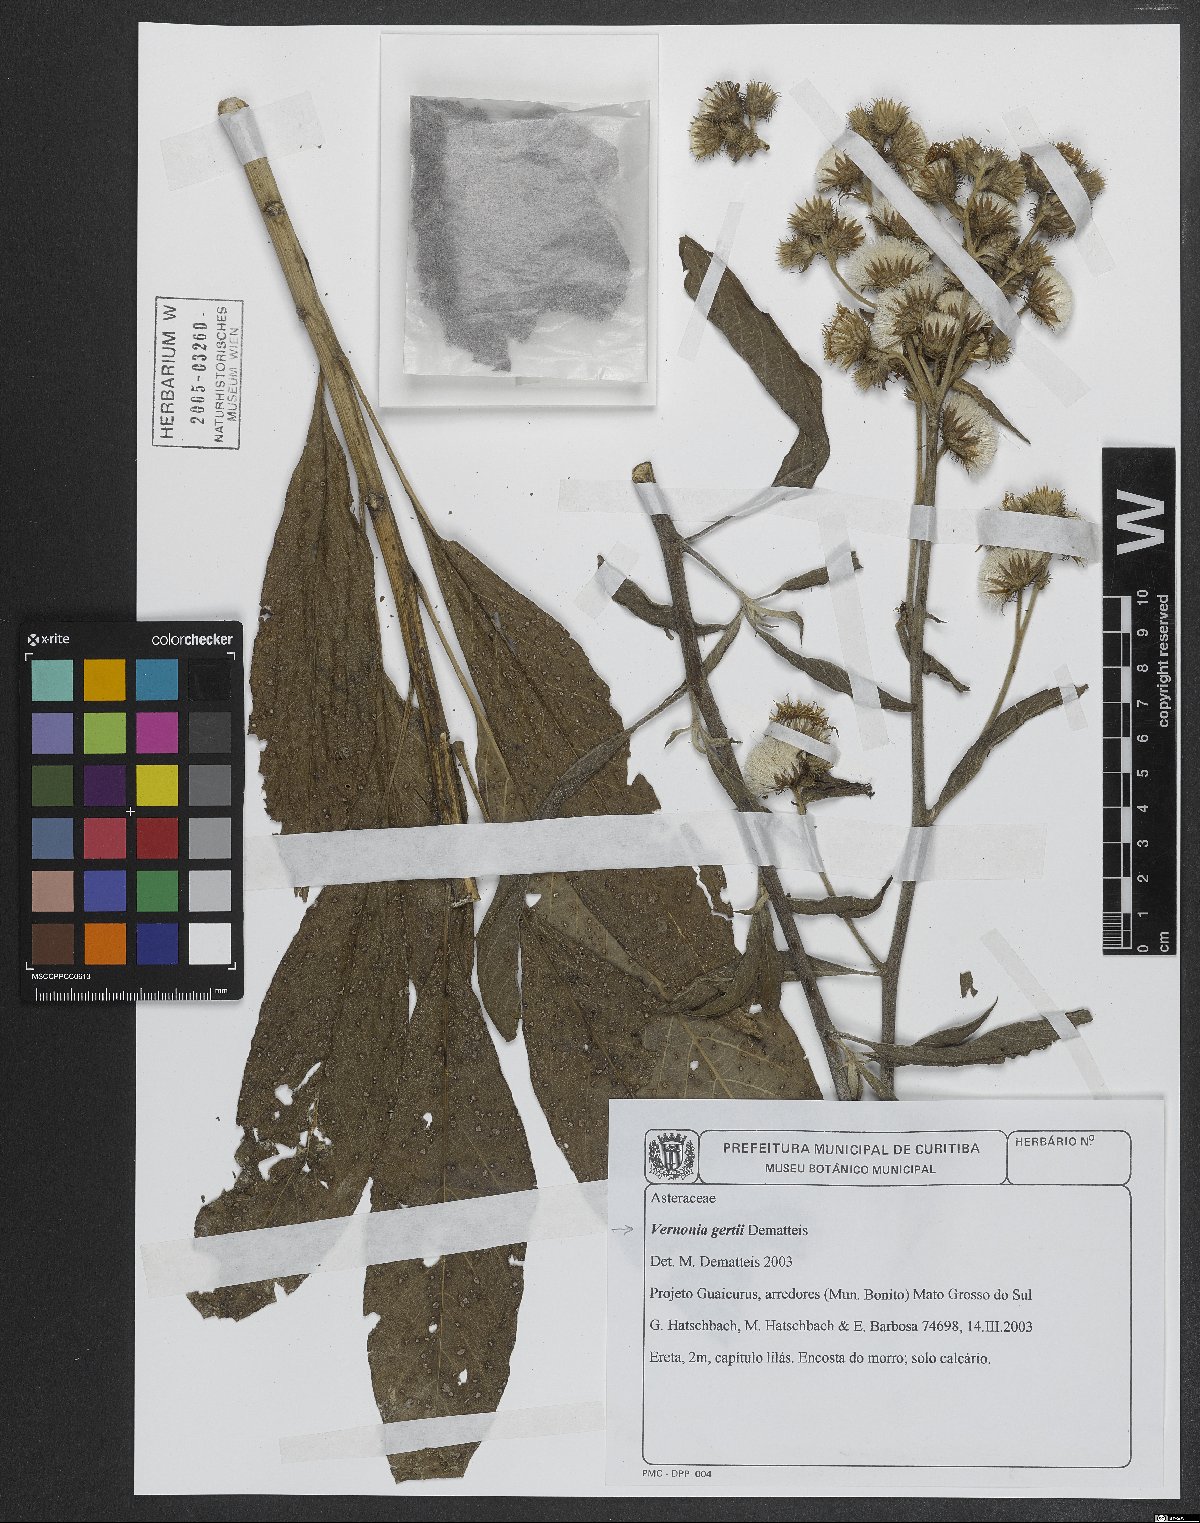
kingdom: Plantae
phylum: Tracheophyta
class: Magnoliopsida
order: Asterales
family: Asteraceae
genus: Vernonia
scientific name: Vernonia gertii
